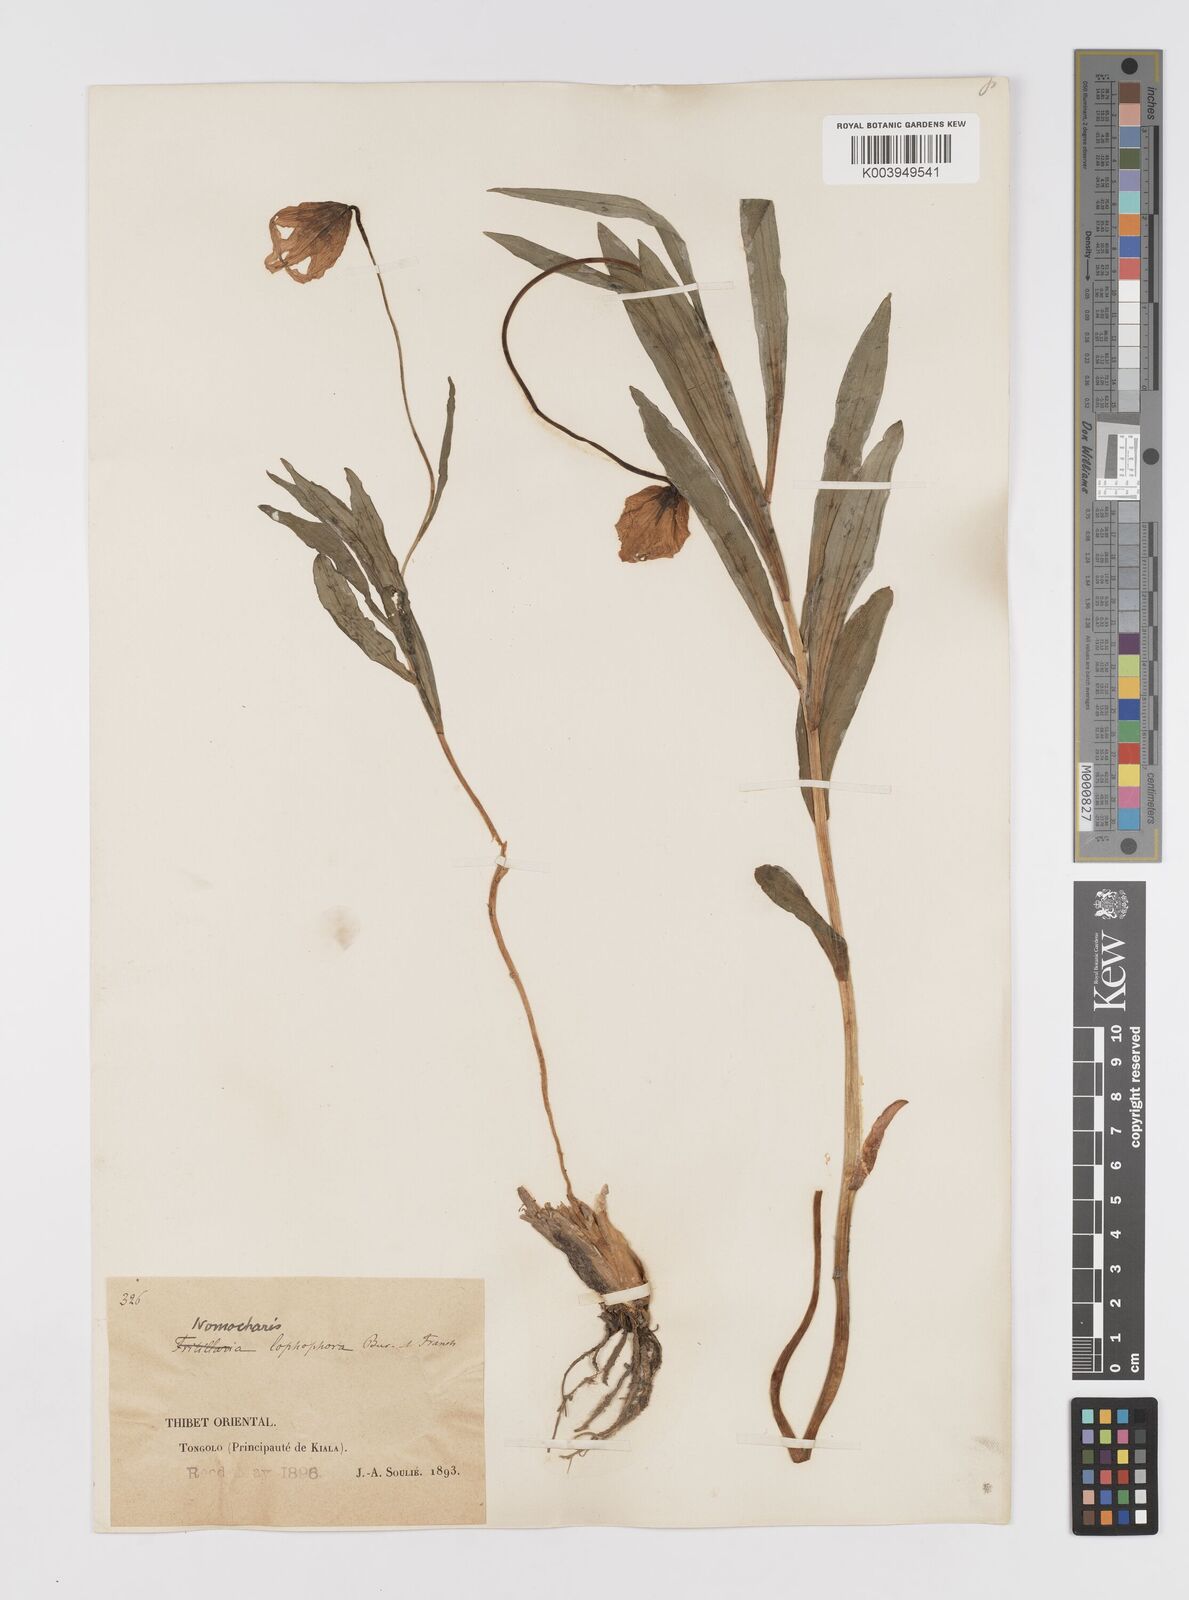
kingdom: Plantae
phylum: Tracheophyta
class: Liliopsida
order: Liliales
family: Liliaceae
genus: Lilium
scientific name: Lilium lophophorum
